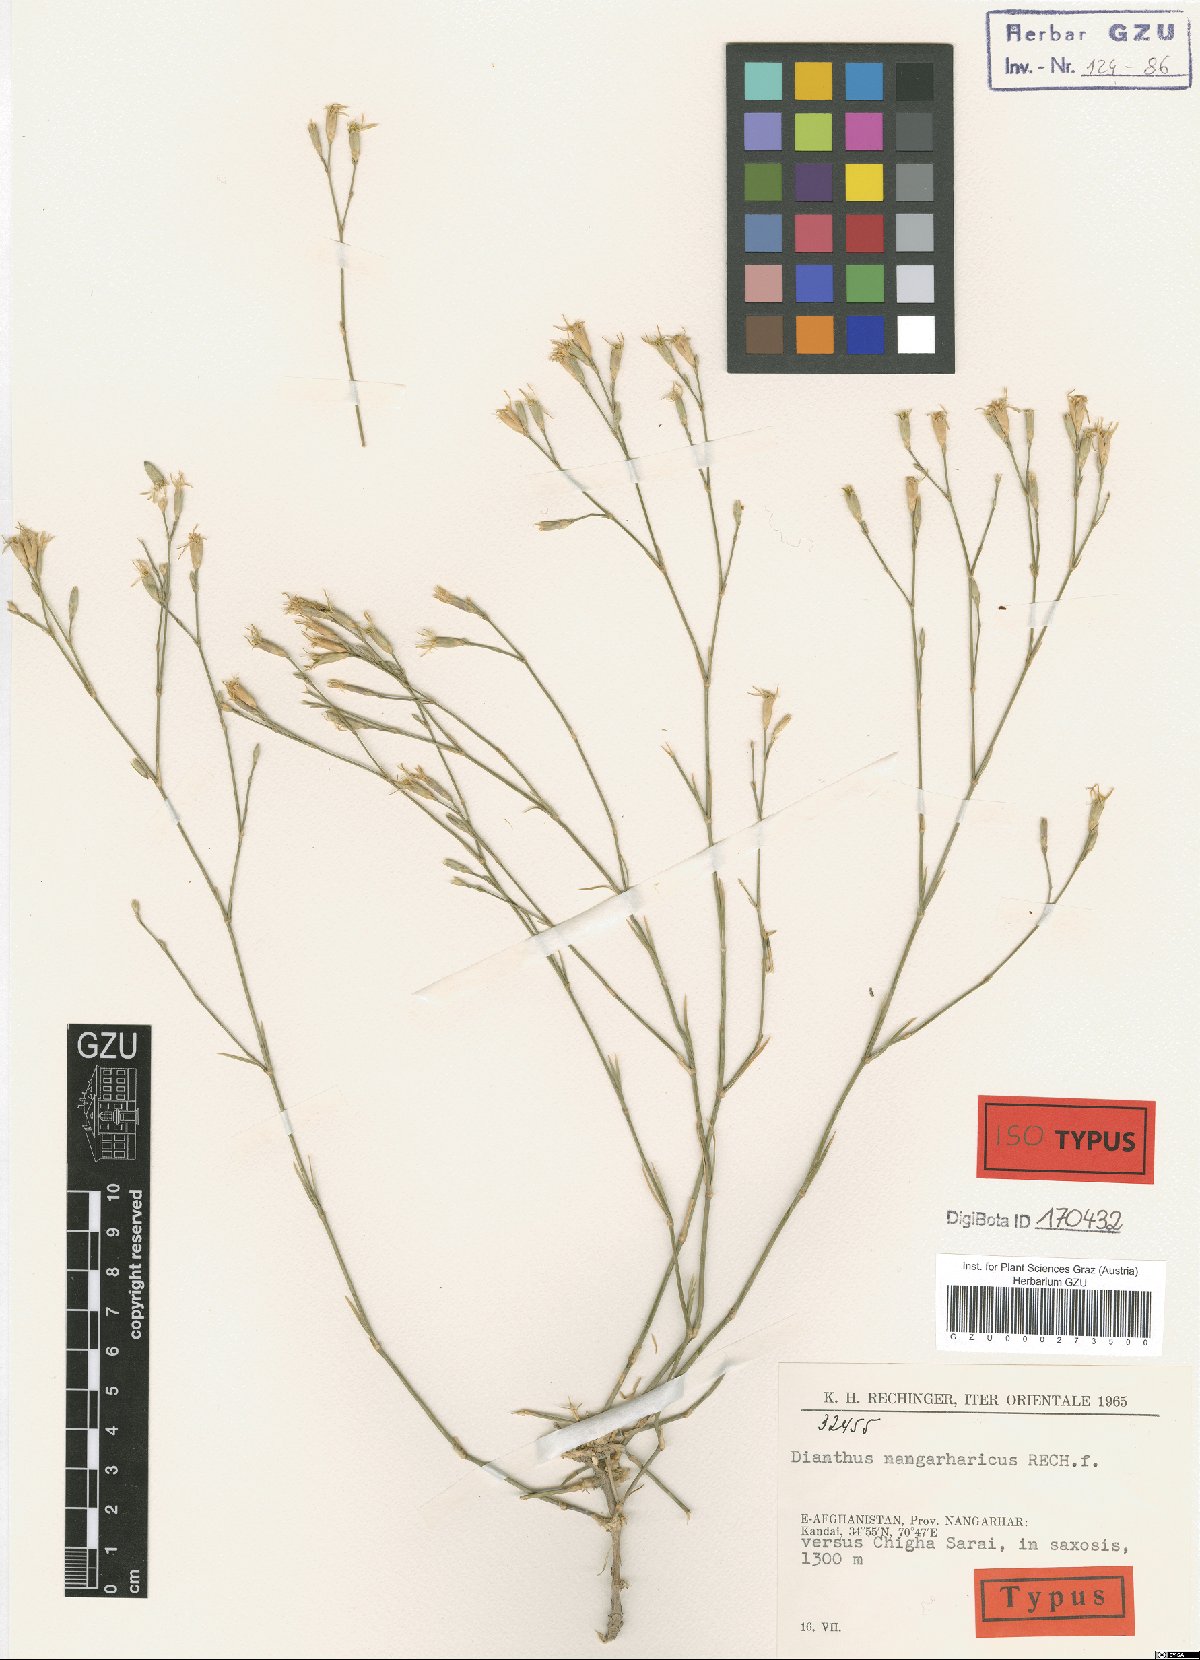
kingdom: Plantae
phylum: Tracheophyta
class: Magnoliopsida
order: Caryophyllales
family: Caryophyllaceae
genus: Dianthus
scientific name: Dianthus nangarharicus
